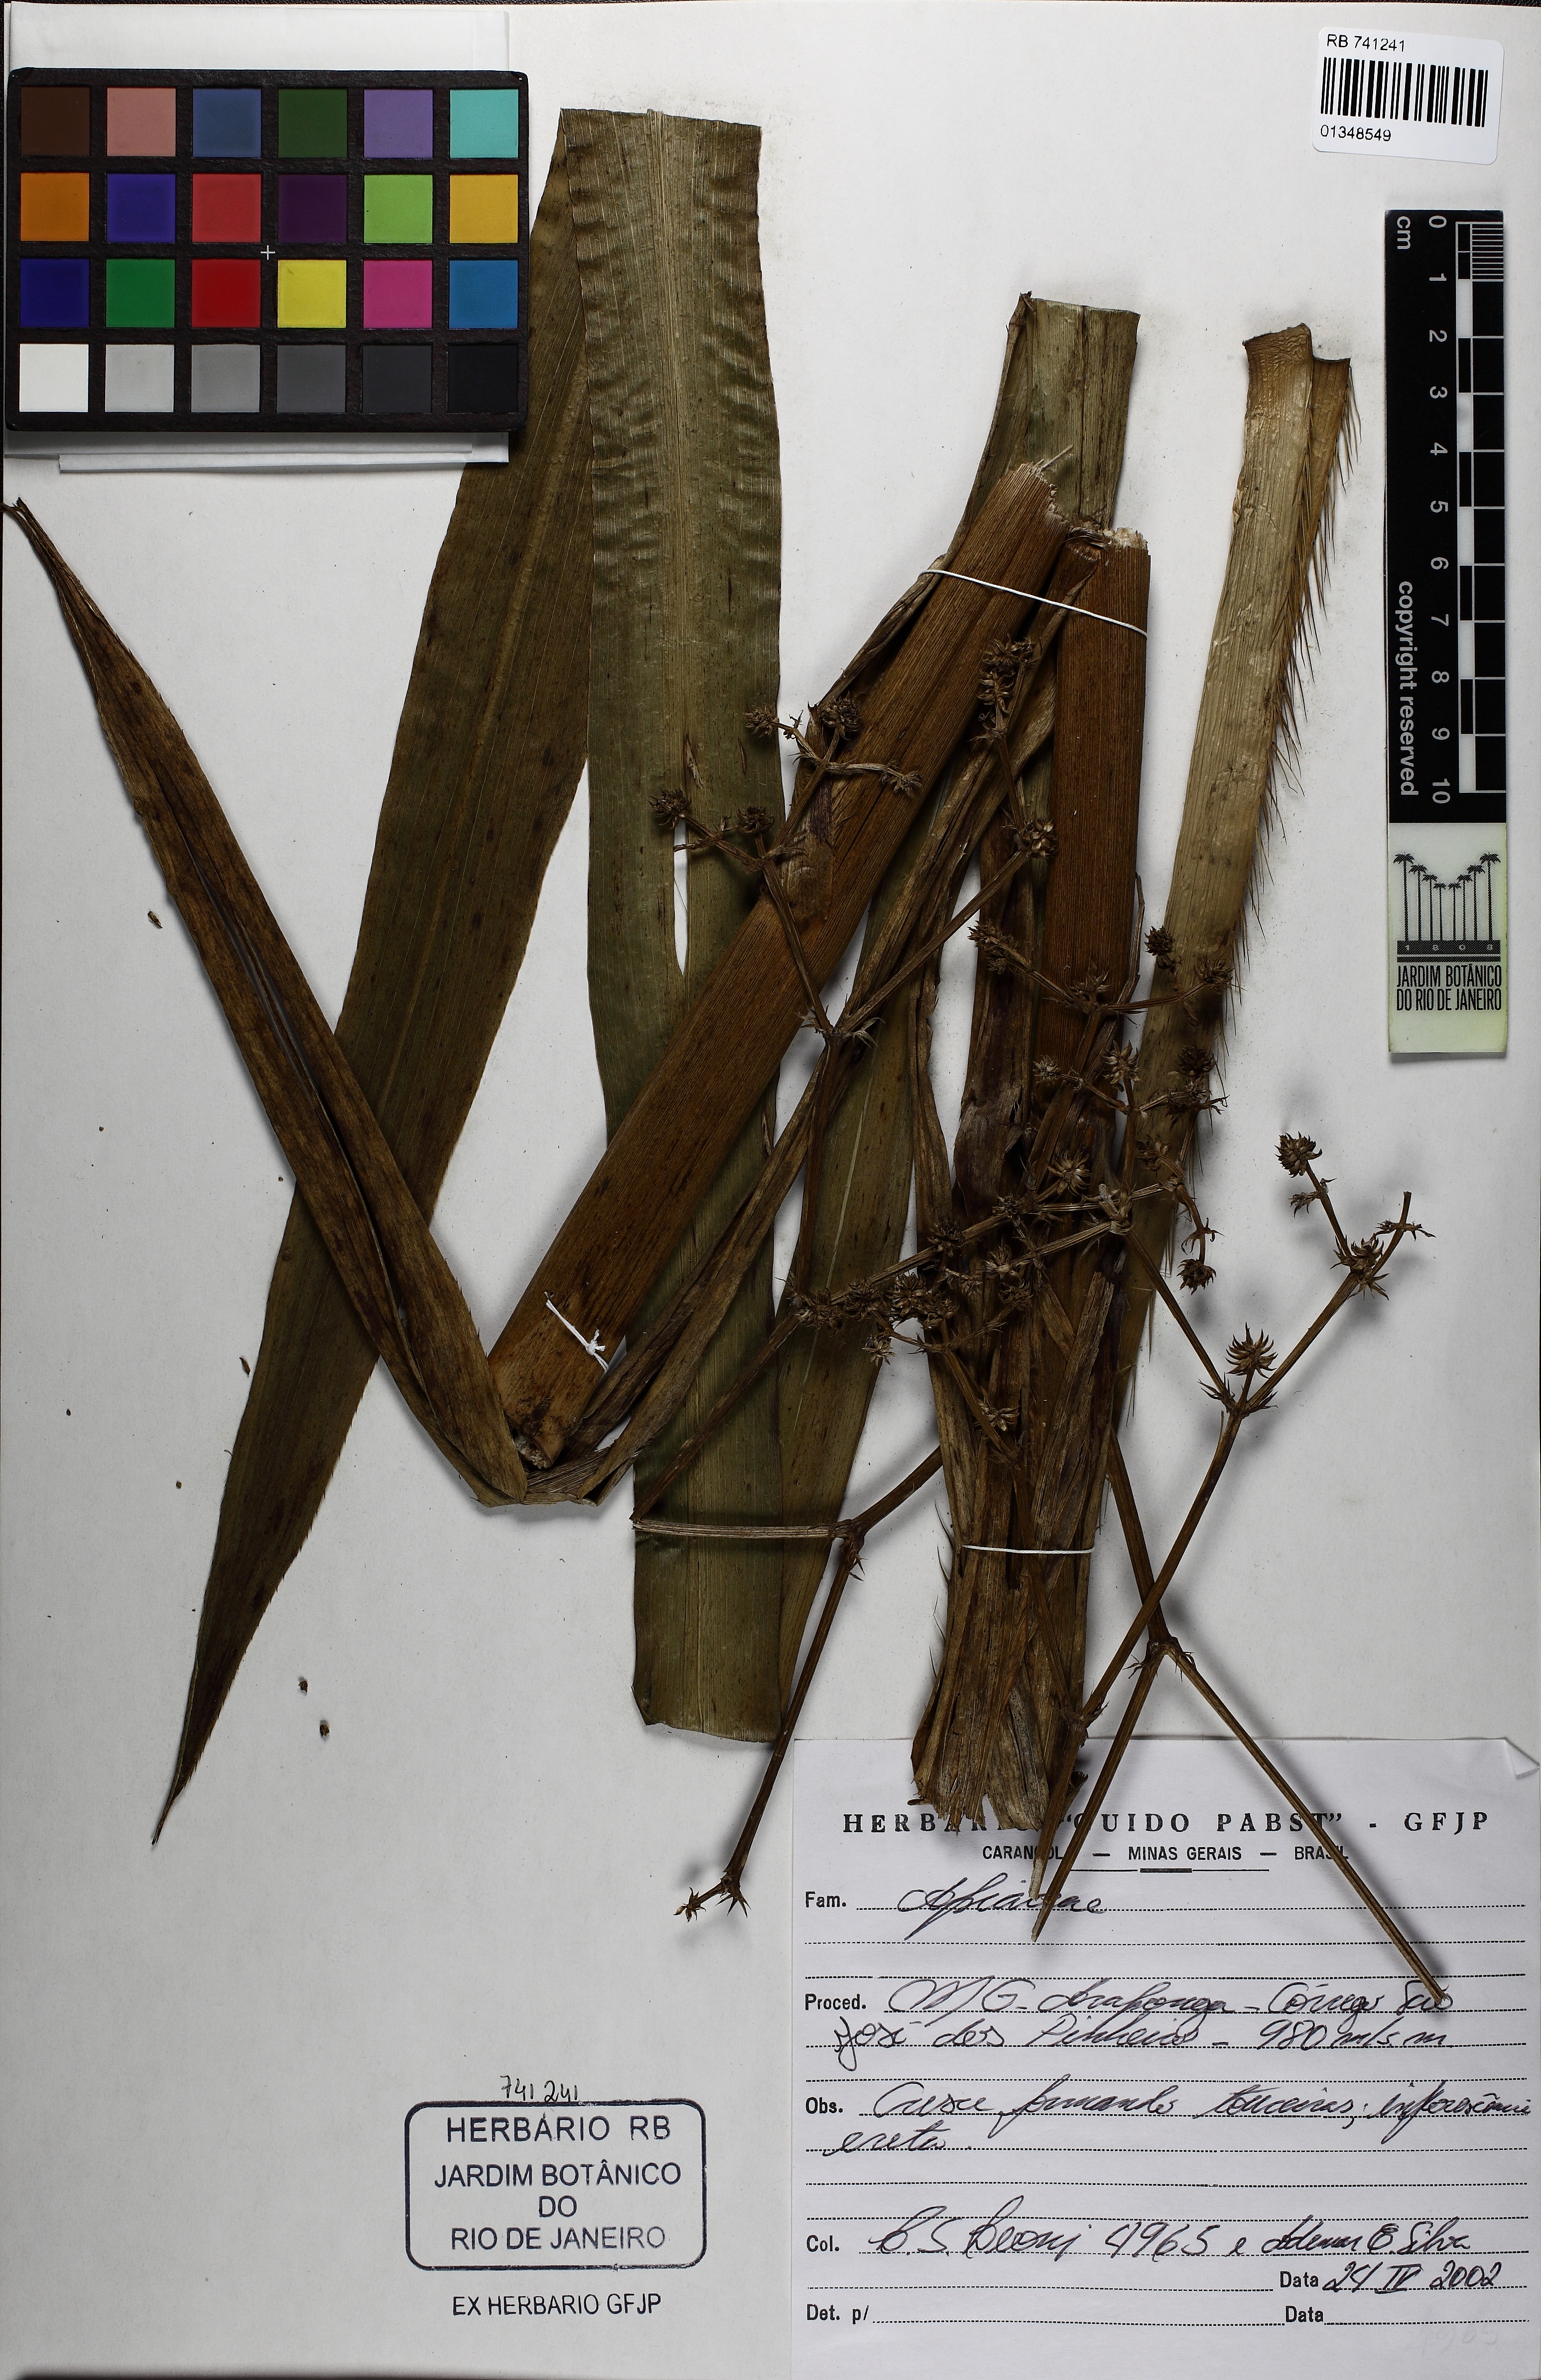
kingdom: Plantae
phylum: Tracheophyta
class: Magnoliopsida
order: Apiales
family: Apiaceae
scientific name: Apiaceae
